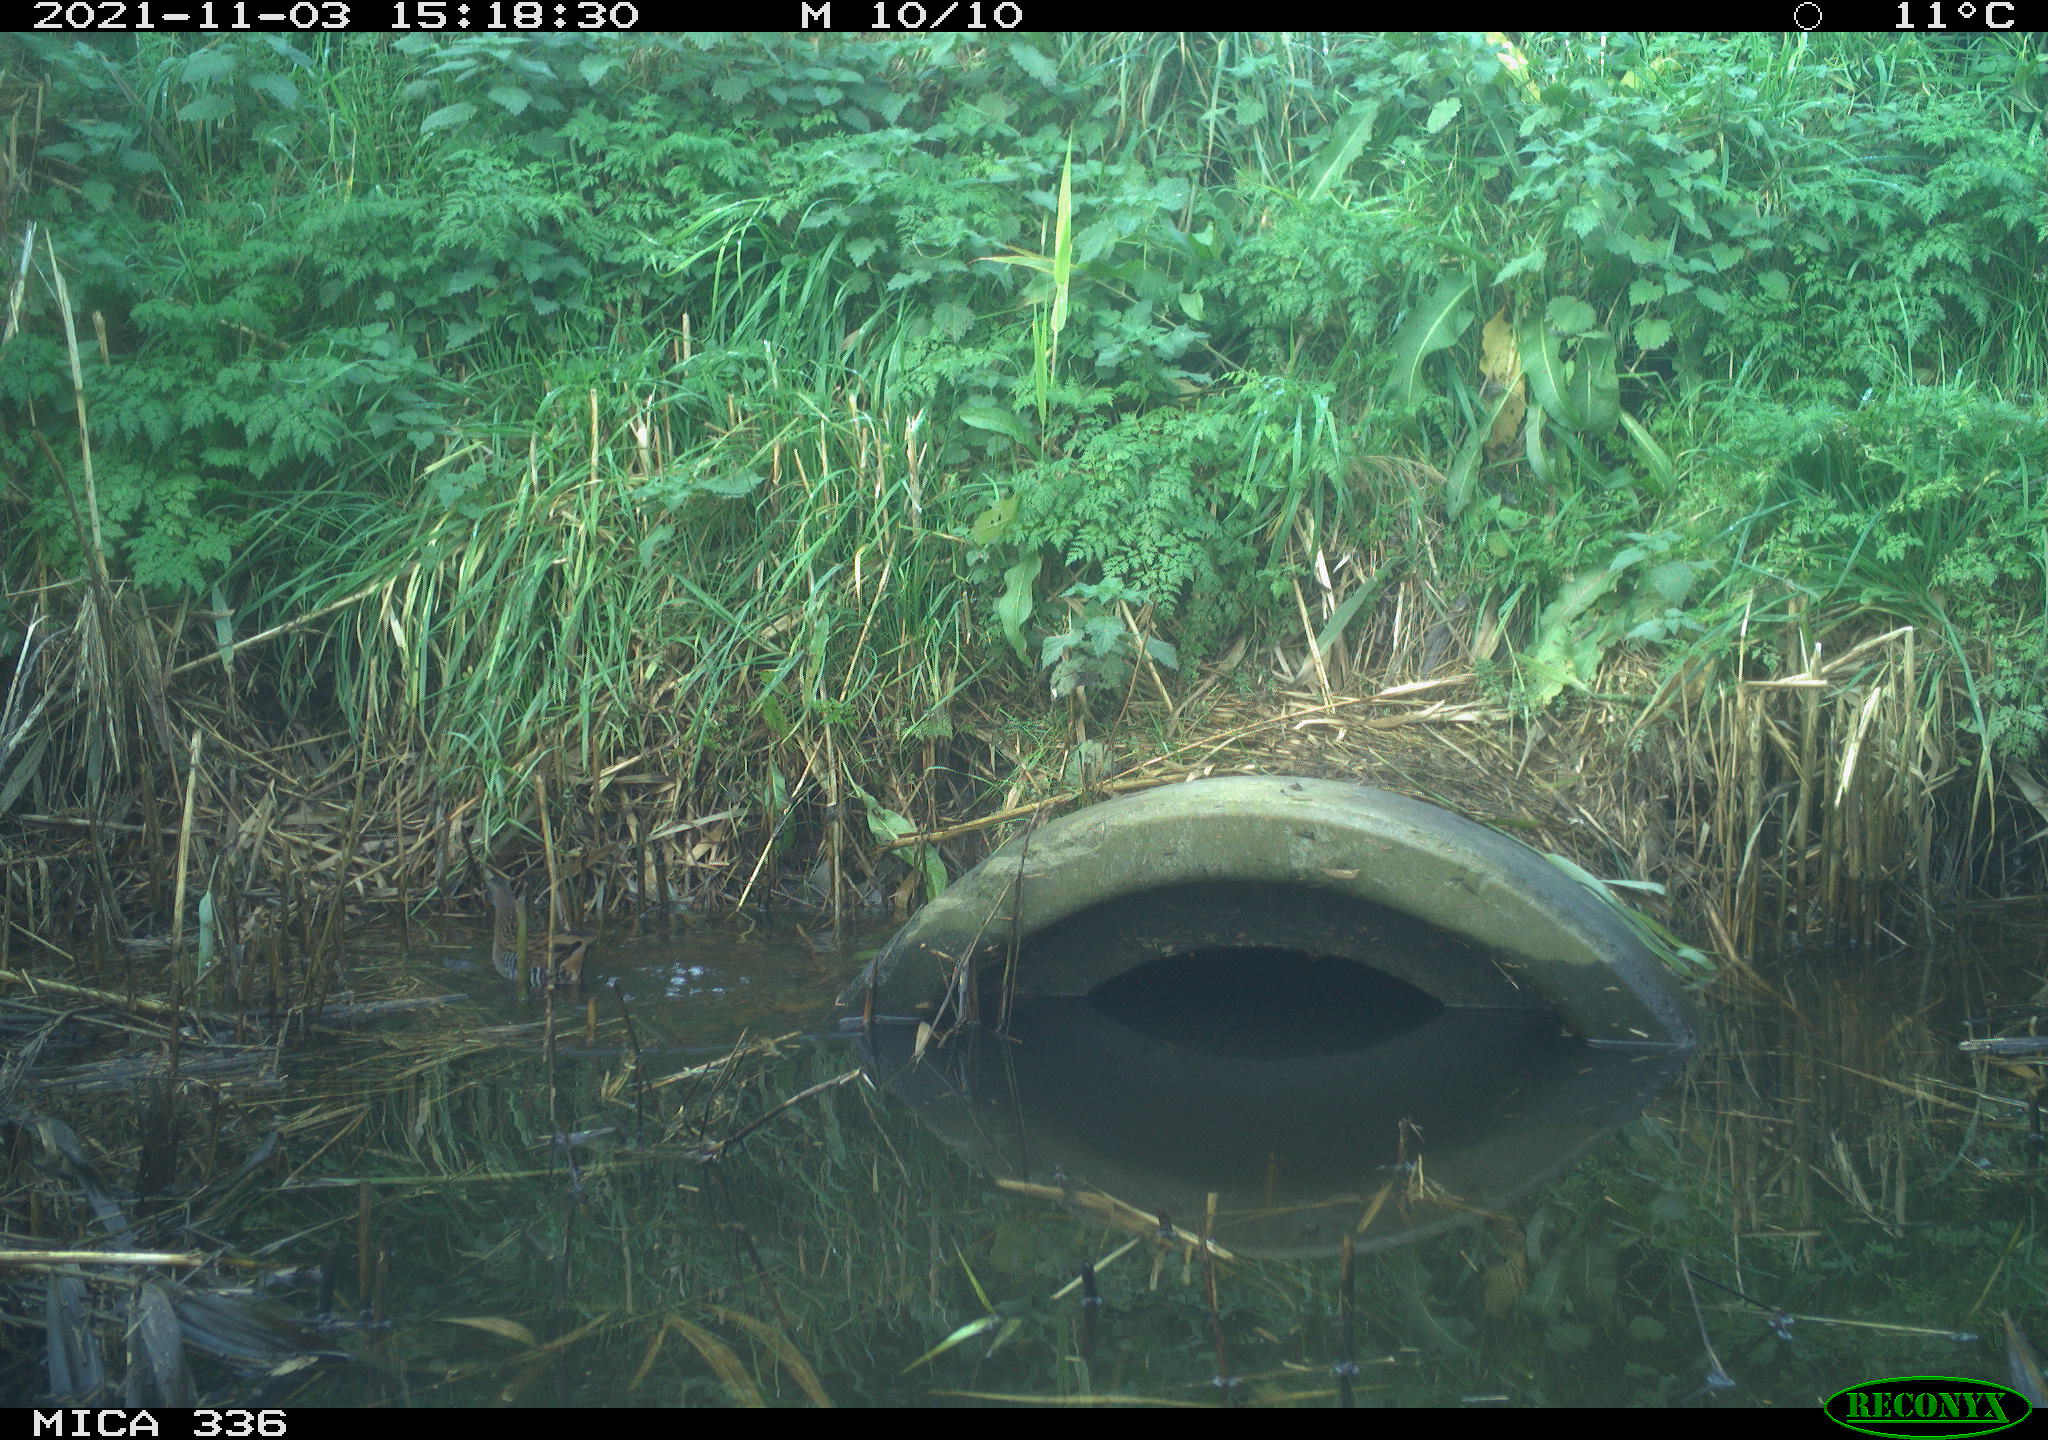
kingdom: Animalia
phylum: Chordata
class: Aves
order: Gruiformes
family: Rallidae
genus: Gallinula
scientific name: Gallinula chloropus
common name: Common moorhen
